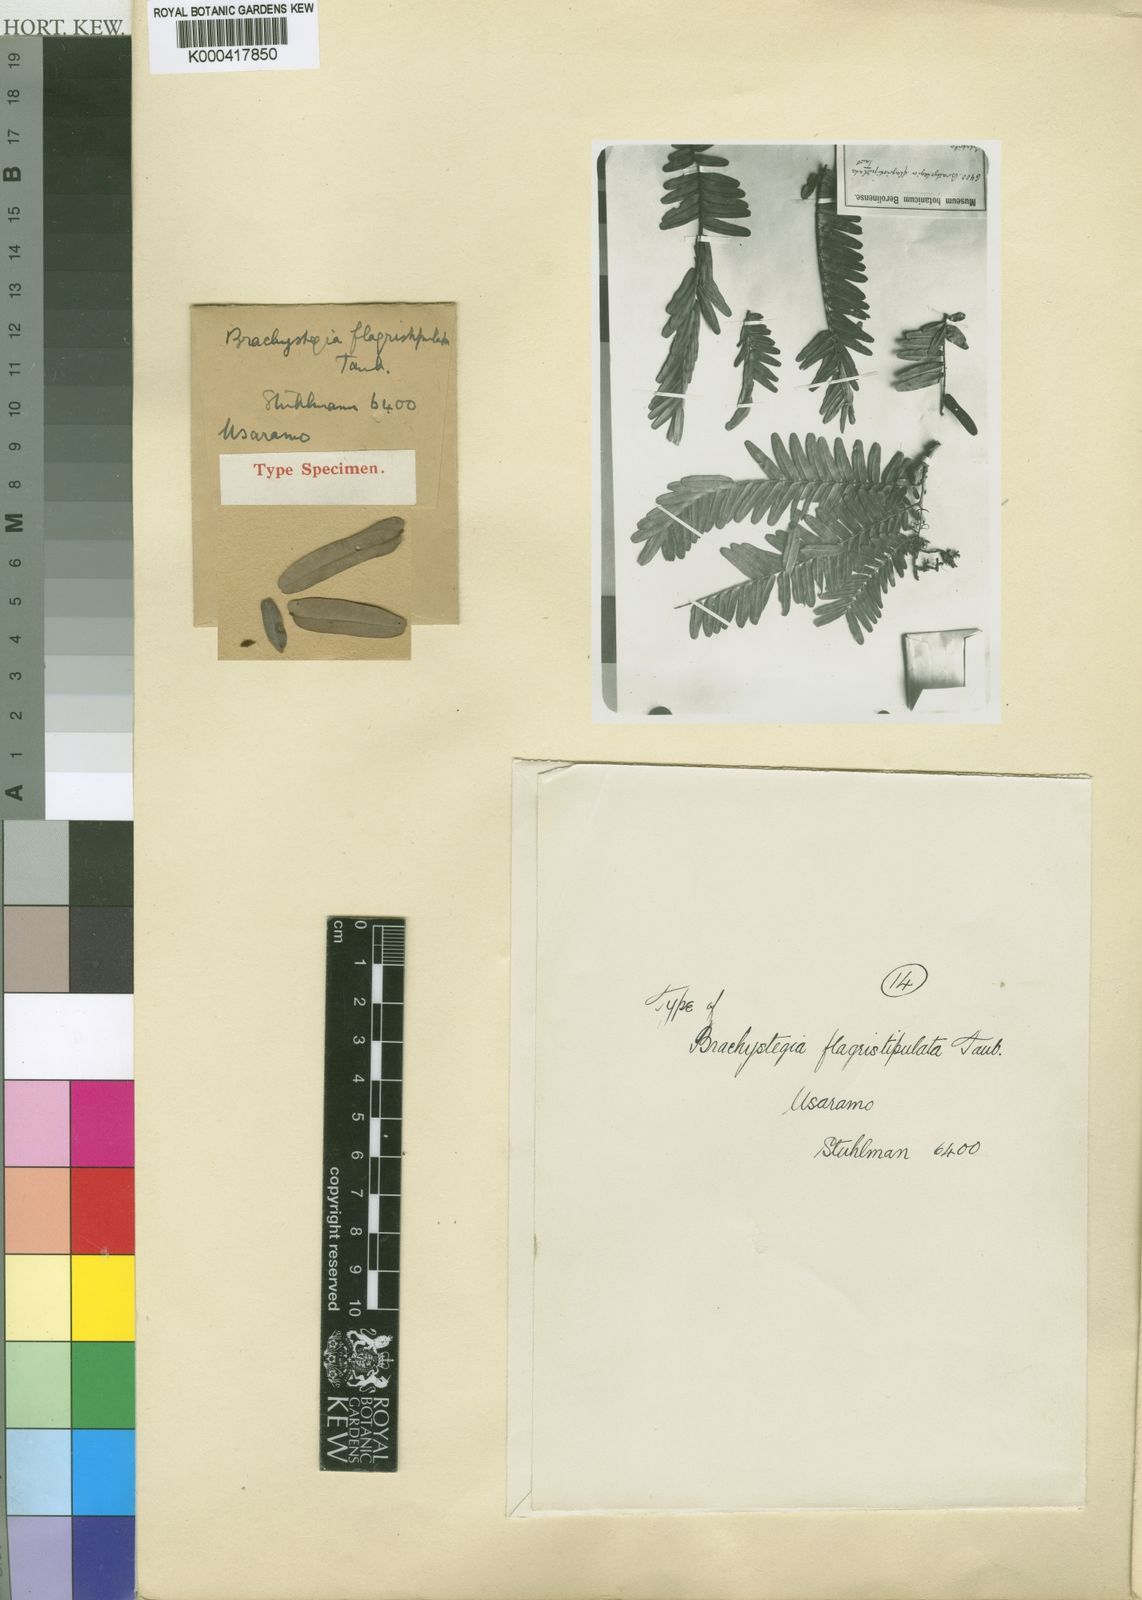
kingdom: Plantae
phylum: Tracheophyta
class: Magnoliopsida
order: Fabales
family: Fabaceae
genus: Brachystegia
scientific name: Brachystegia boehmii
